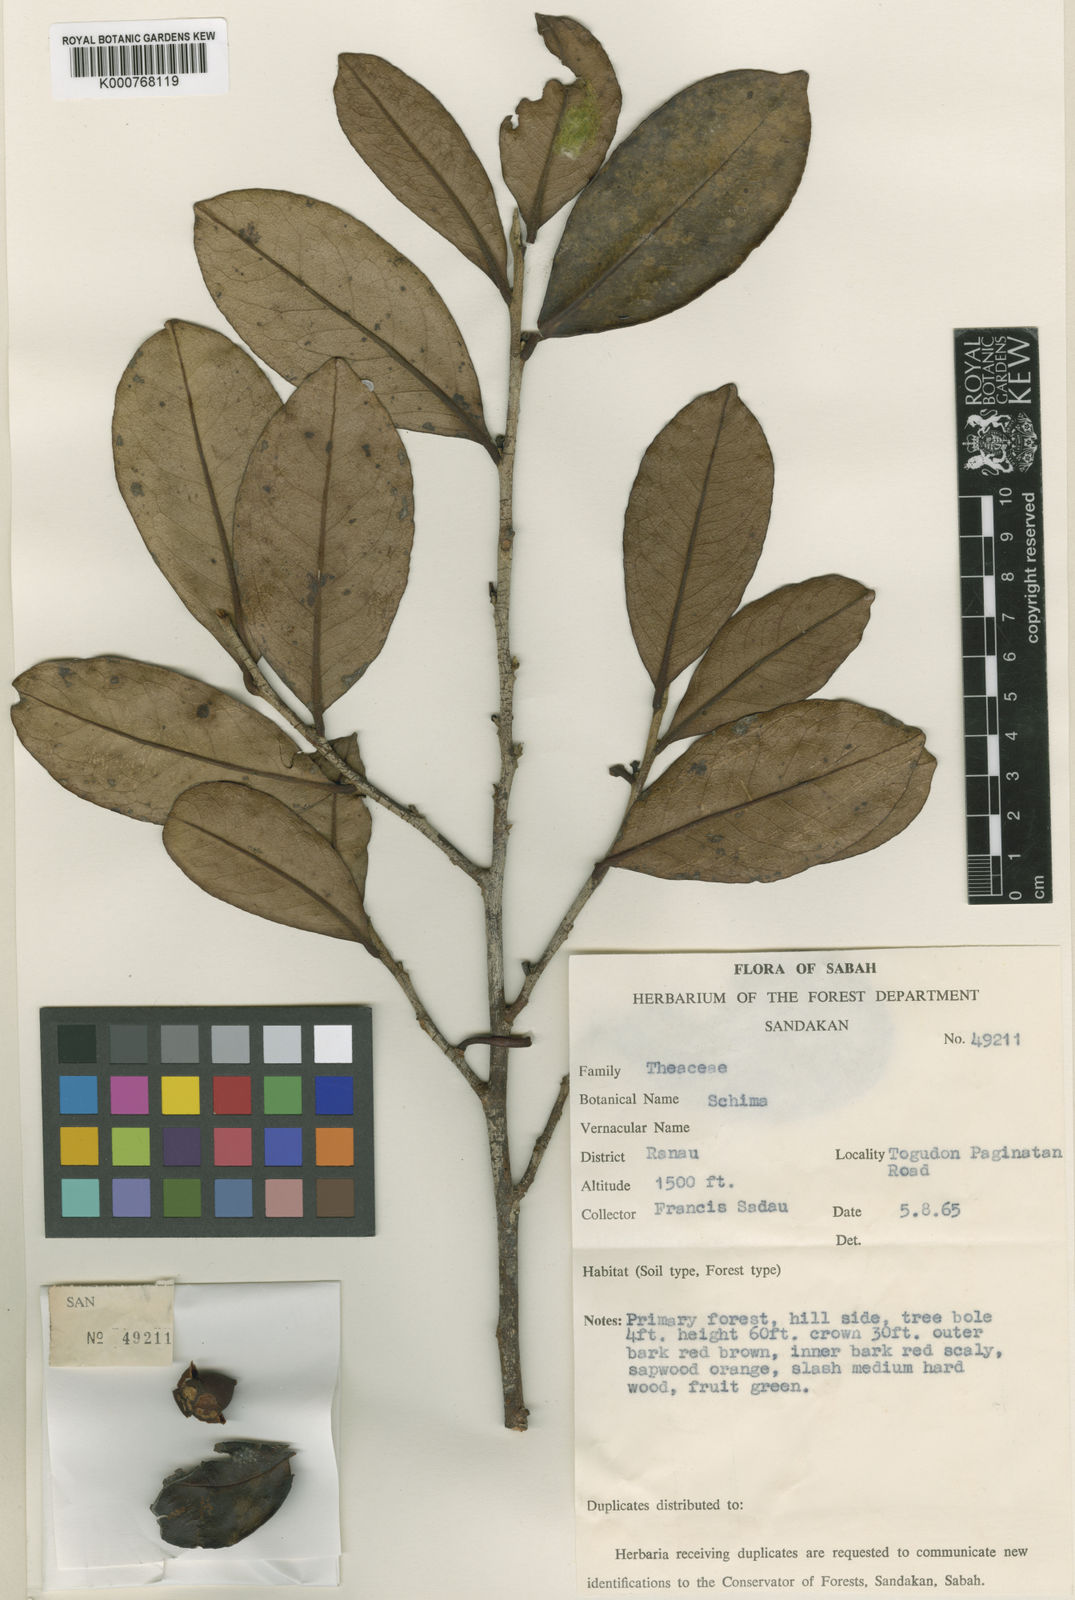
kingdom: Plantae
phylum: Tracheophyta
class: Magnoliopsida
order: Ericales
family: Pentaphylacaceae
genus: Adinandra
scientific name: Adinandra sadaui
